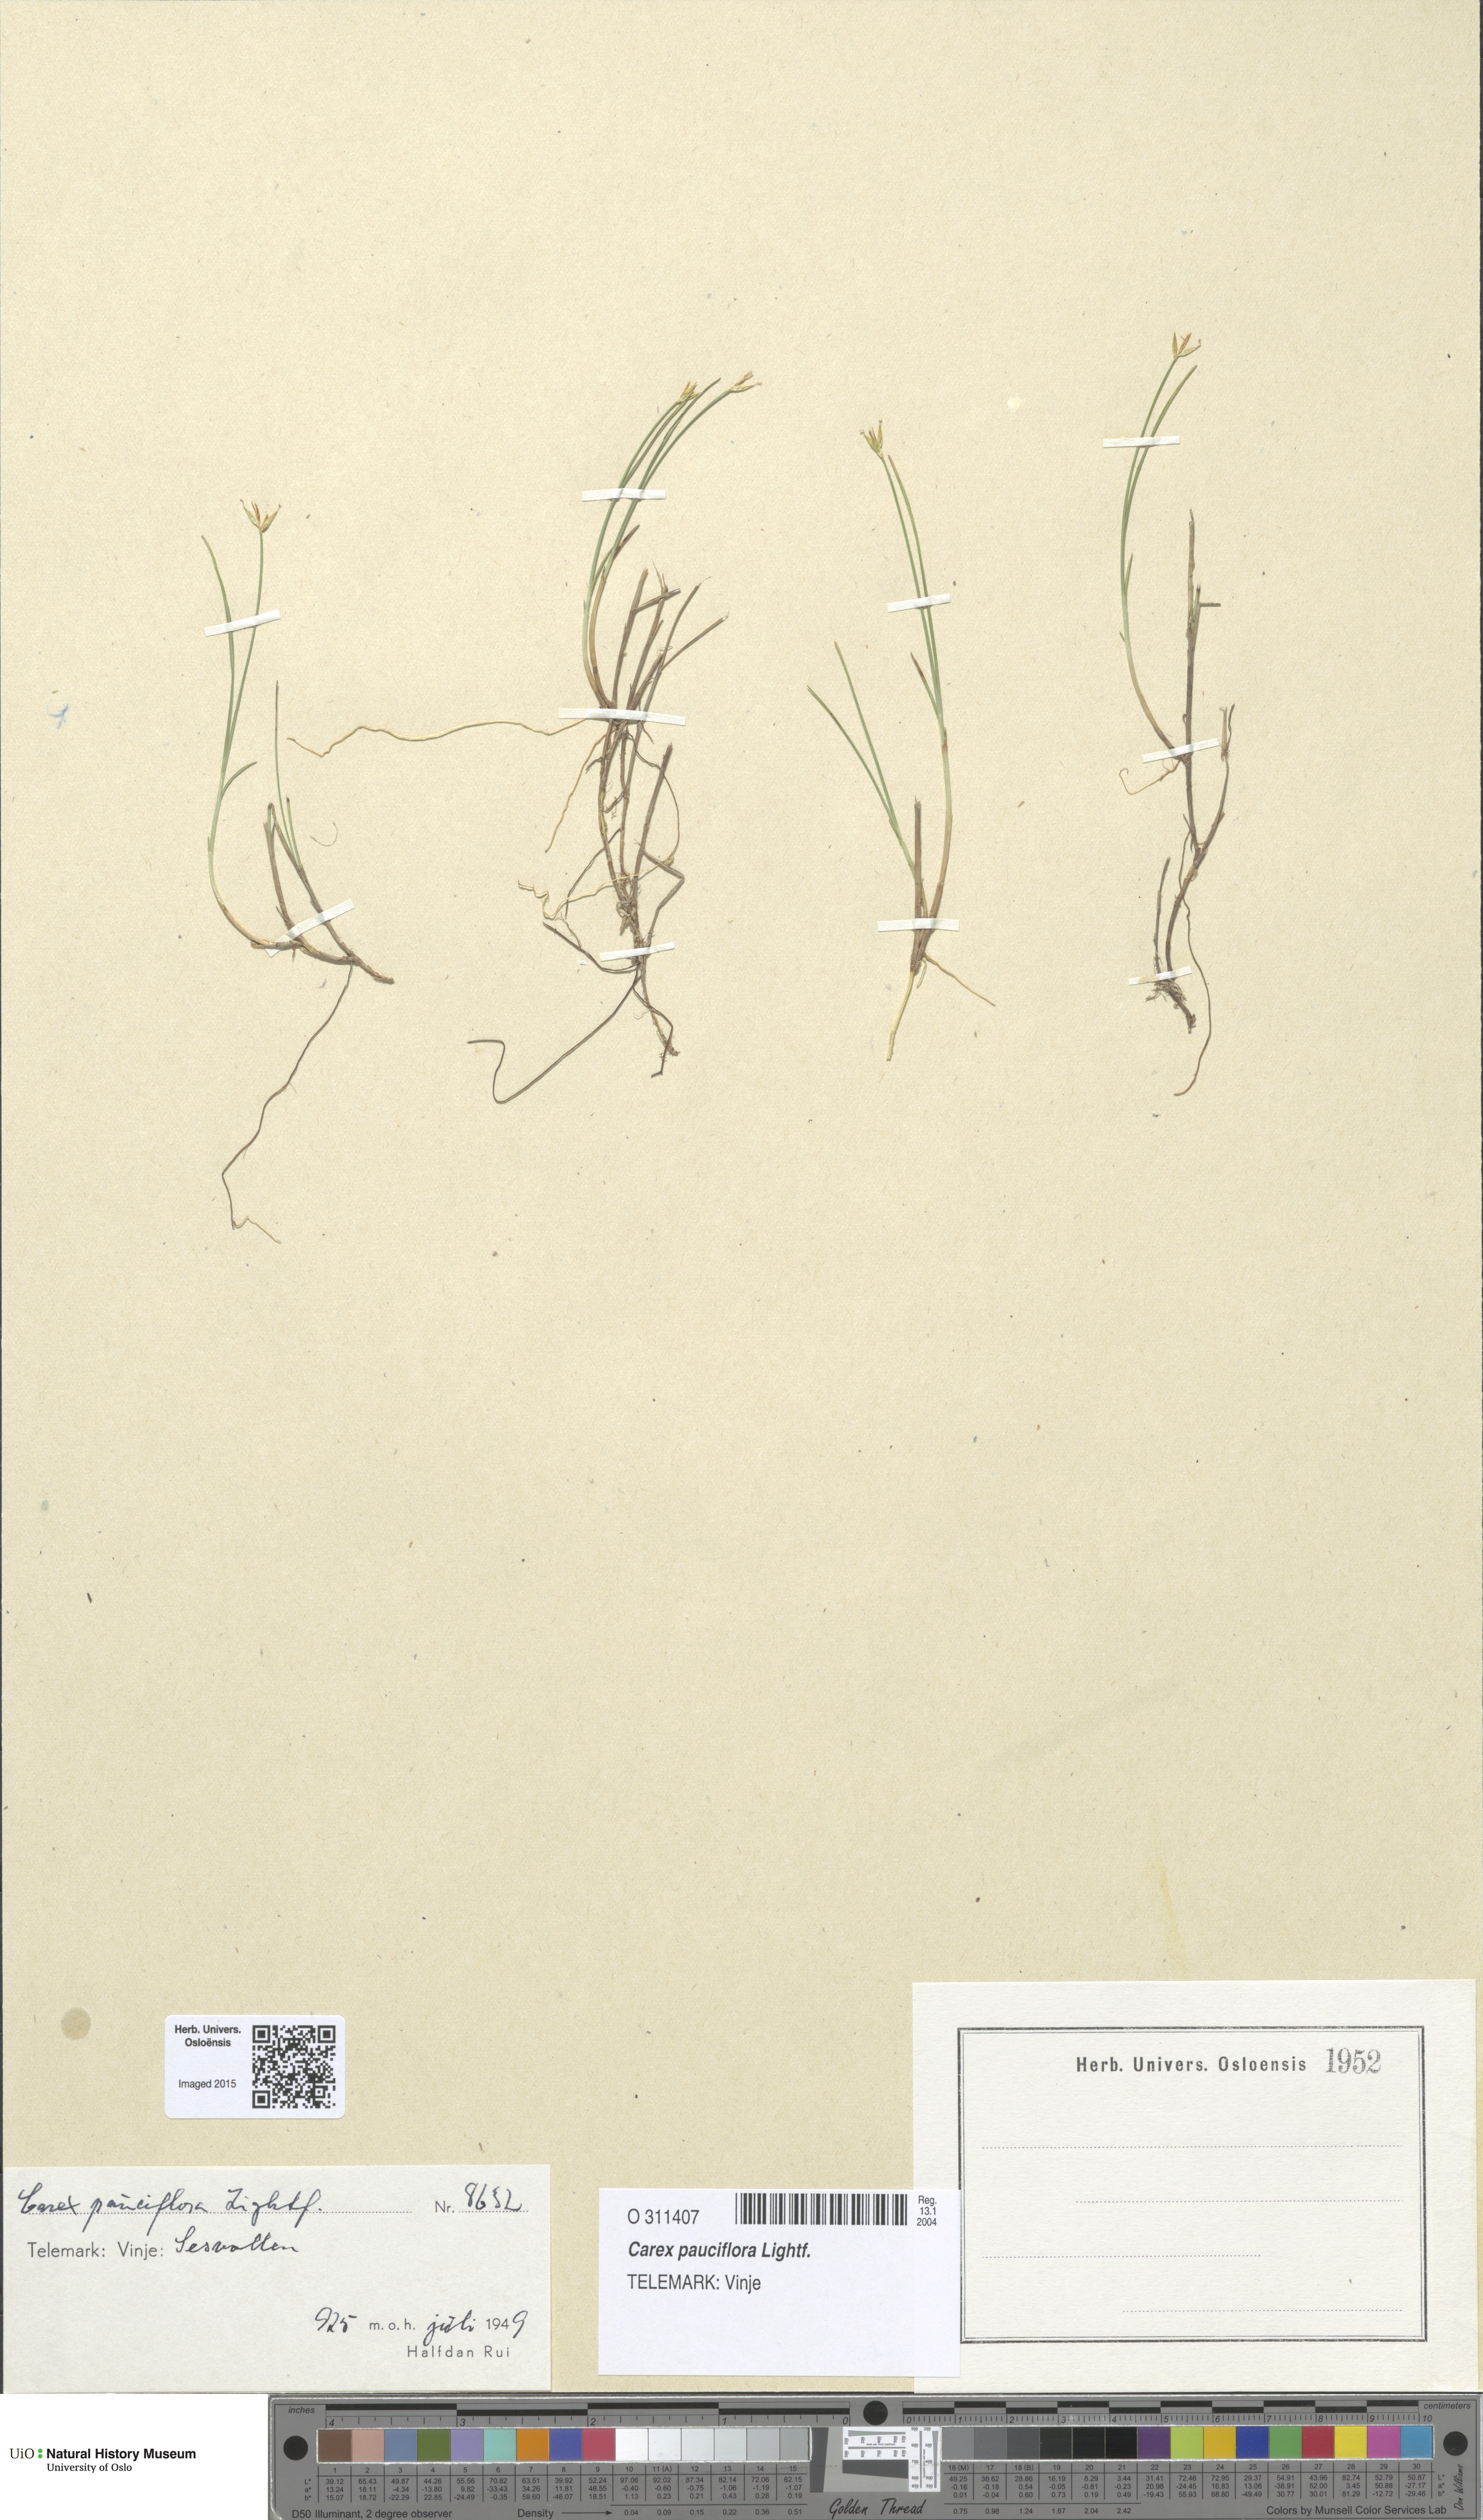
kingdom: Plantae
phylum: Tracheophyta
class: Liliopsida
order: Poales
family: Cyperaceae
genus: Carex
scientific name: Carex pauciflora
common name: Few-flowered sedge
